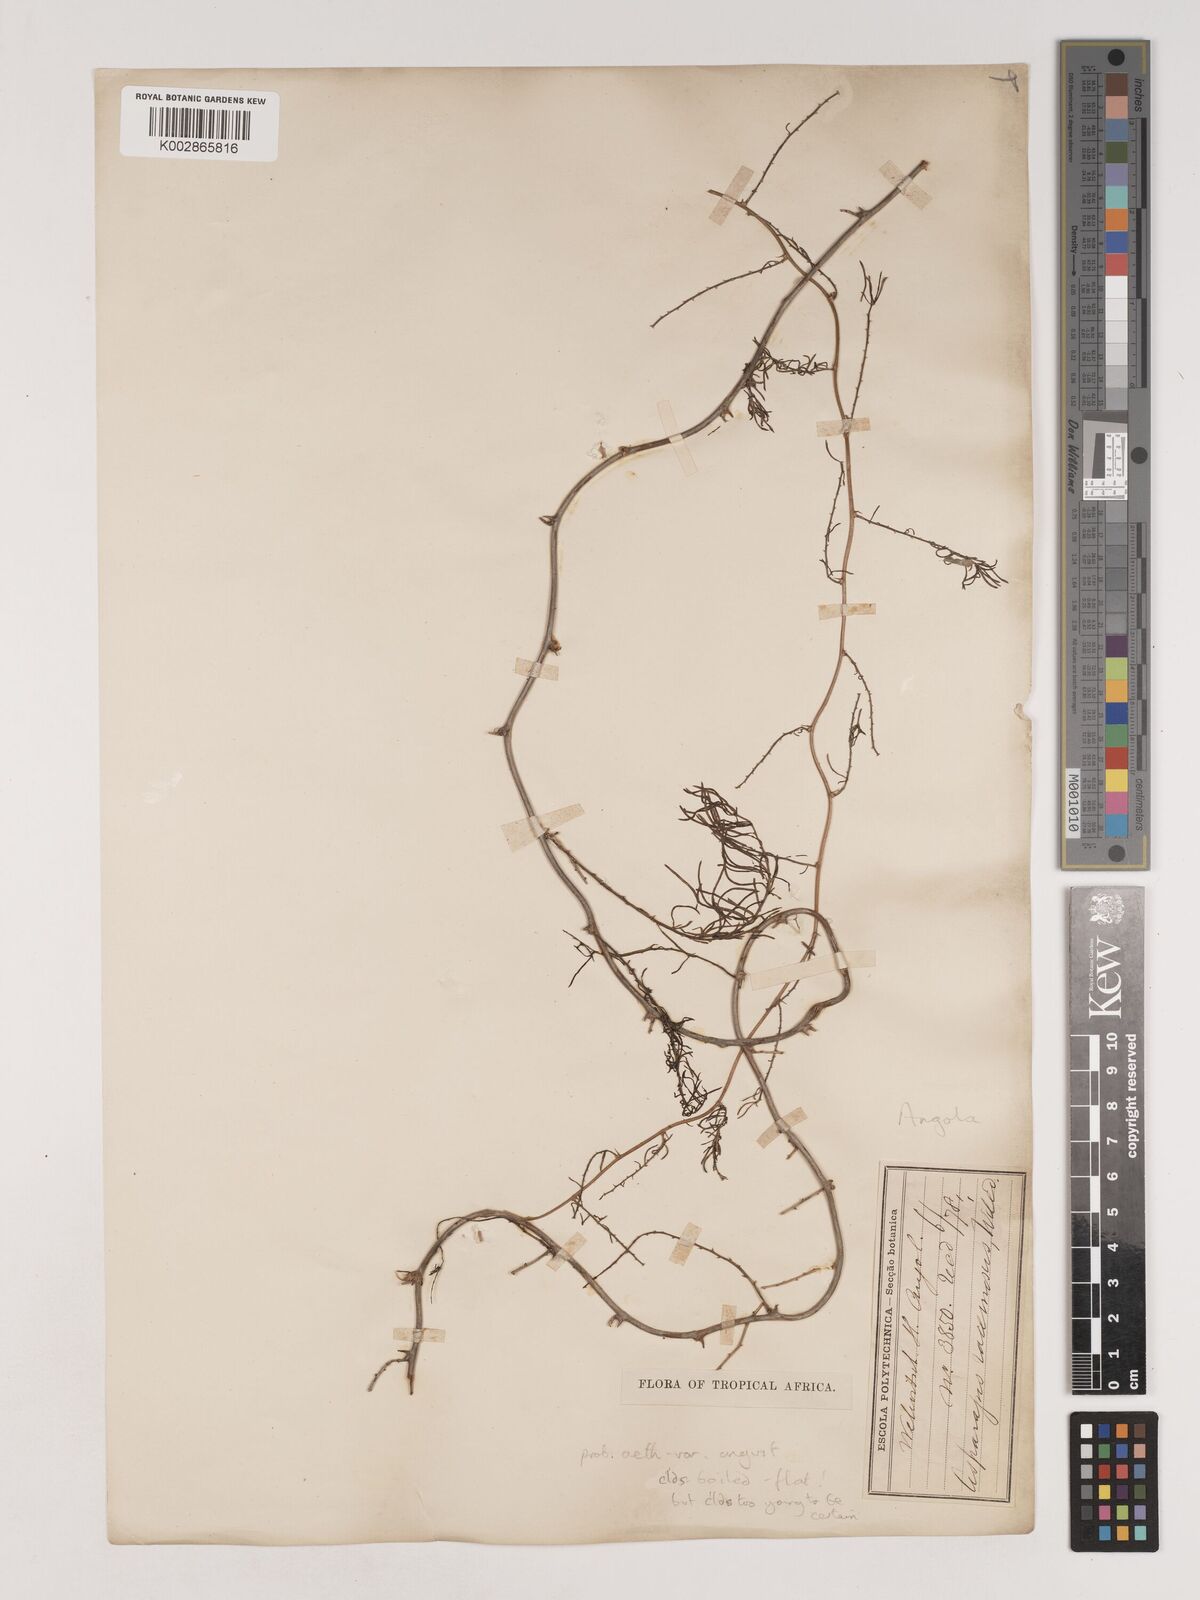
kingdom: Plantae
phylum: Tracheophyta
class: Liliopsida
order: Asparagales
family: Asparagaceae
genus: Asparagus
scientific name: Asparagus aethiopicus
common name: Sprenger's asparagus fern
